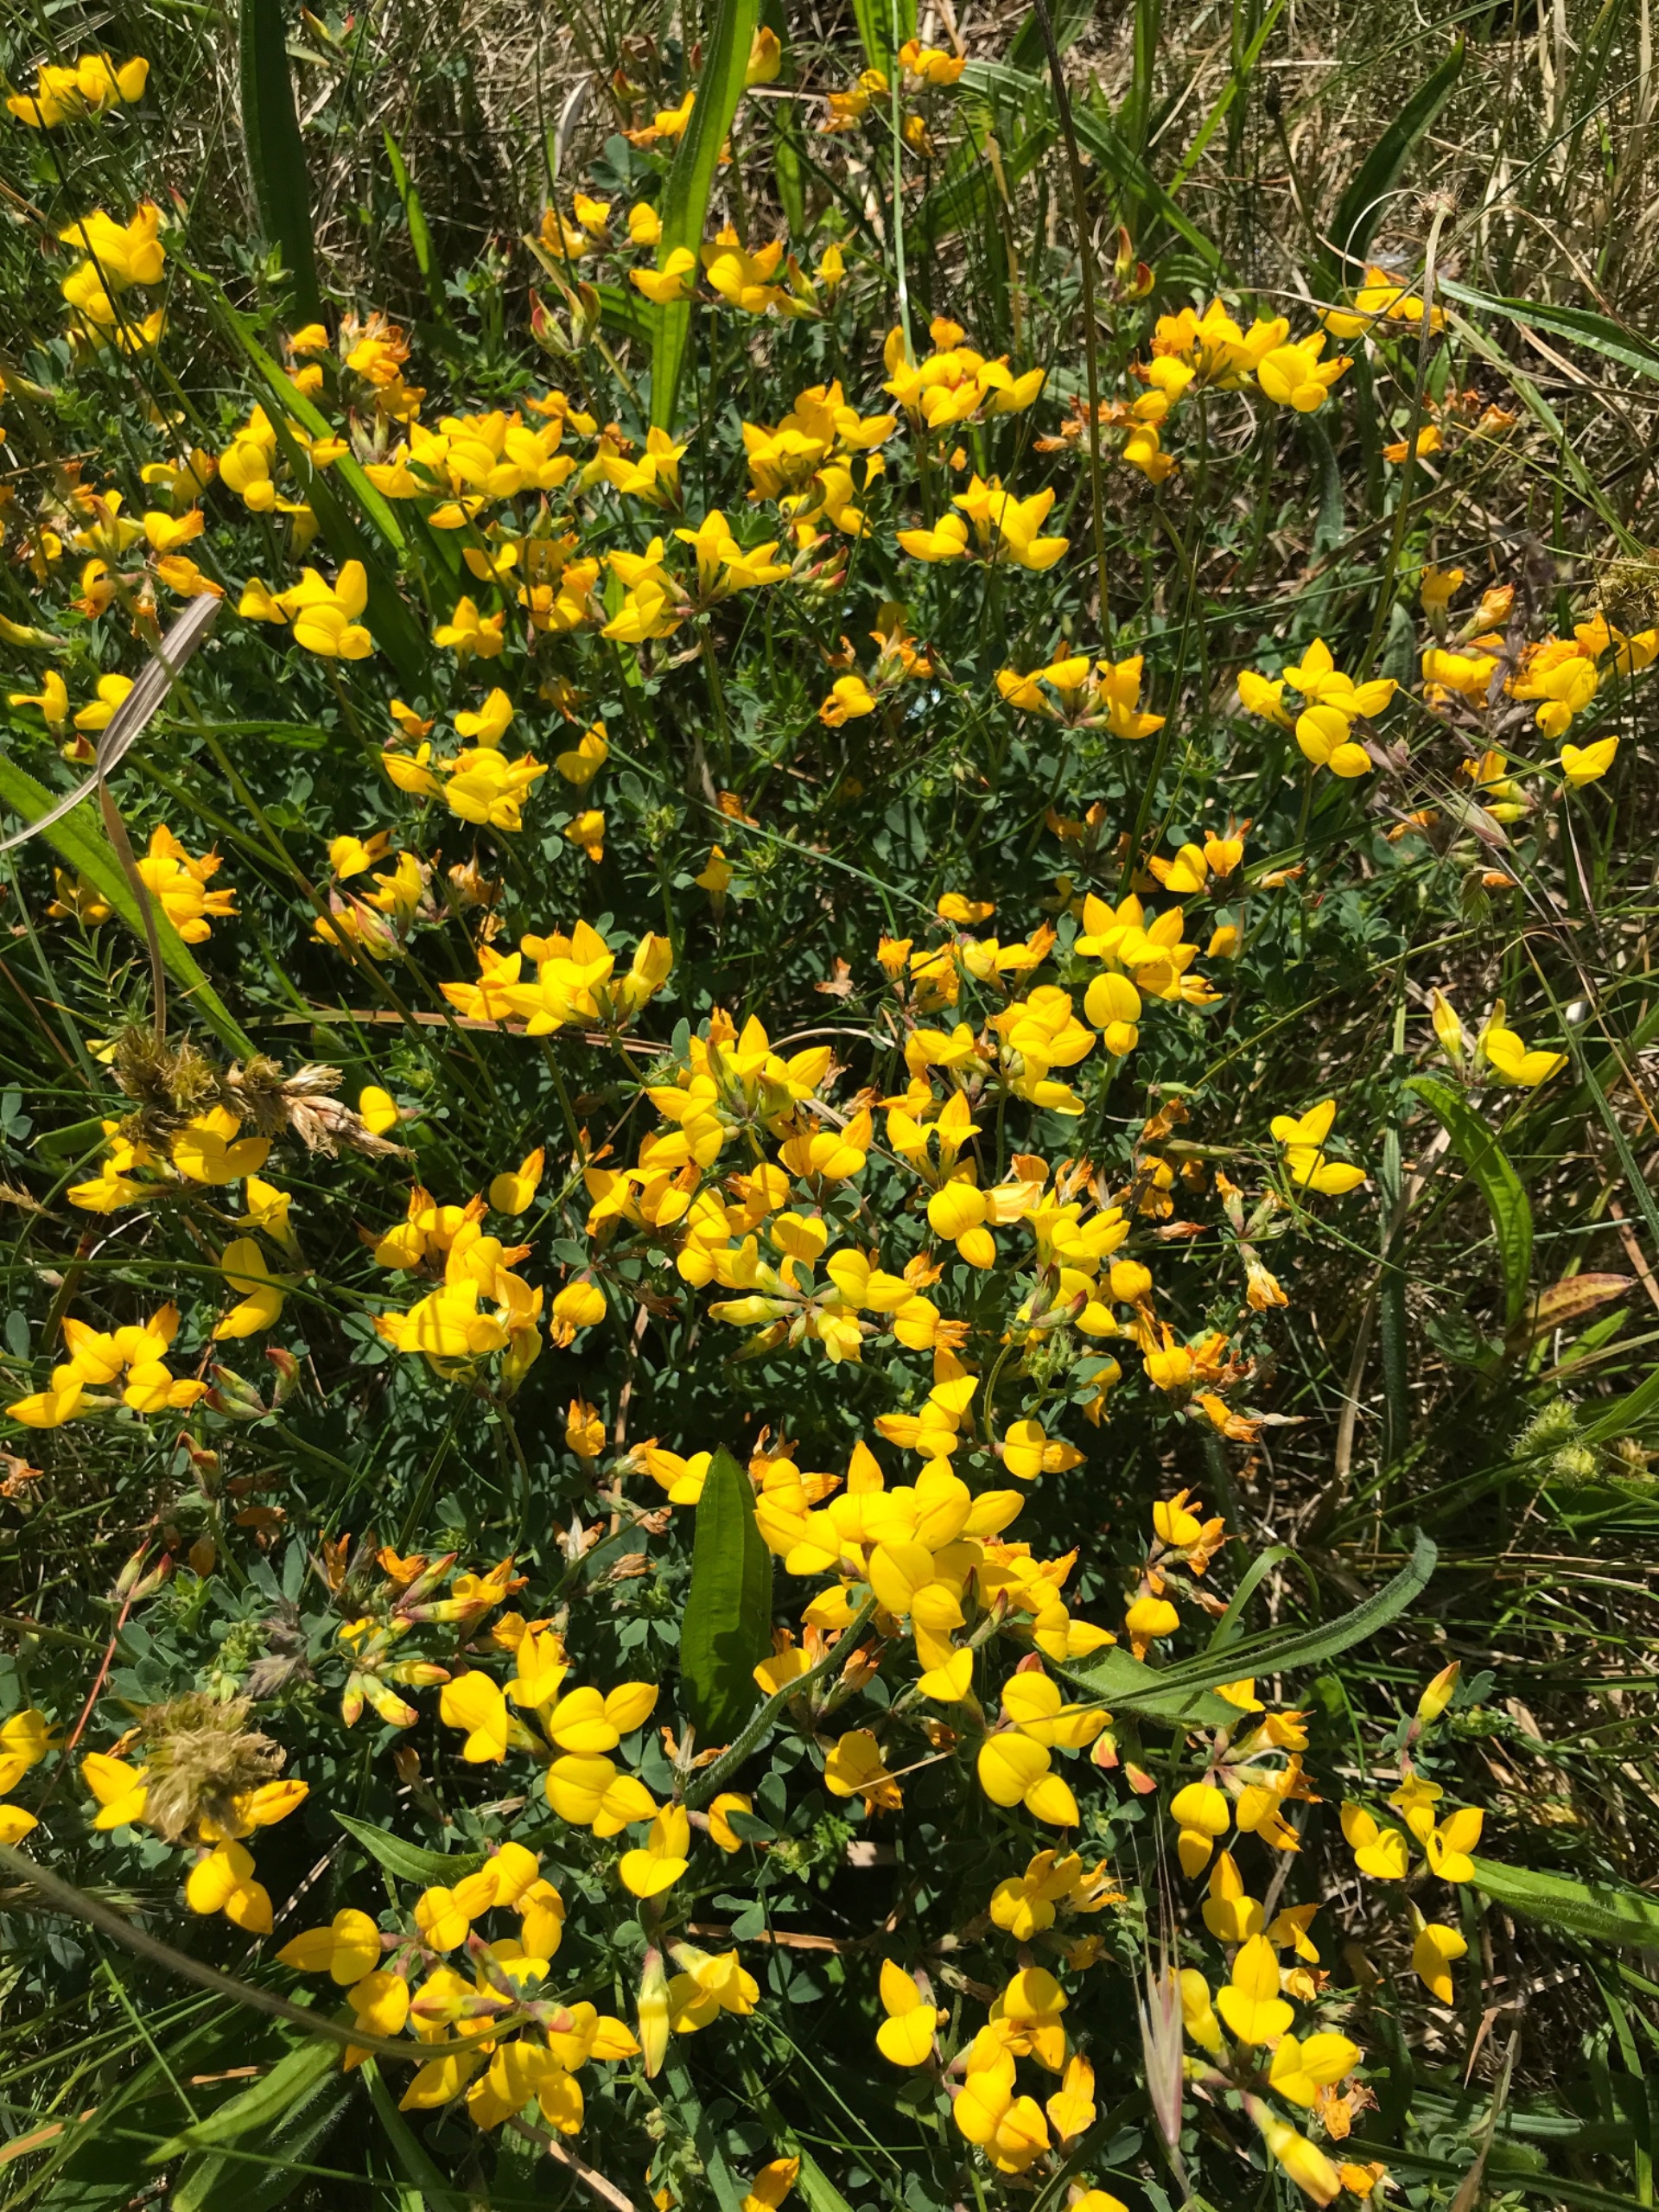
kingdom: Plantae
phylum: Tracheophyta
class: Magnoliopsida
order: Fabales
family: Fabaceae
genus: Lotus
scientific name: Lotus corniculatus
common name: Almindelig kællingetand
